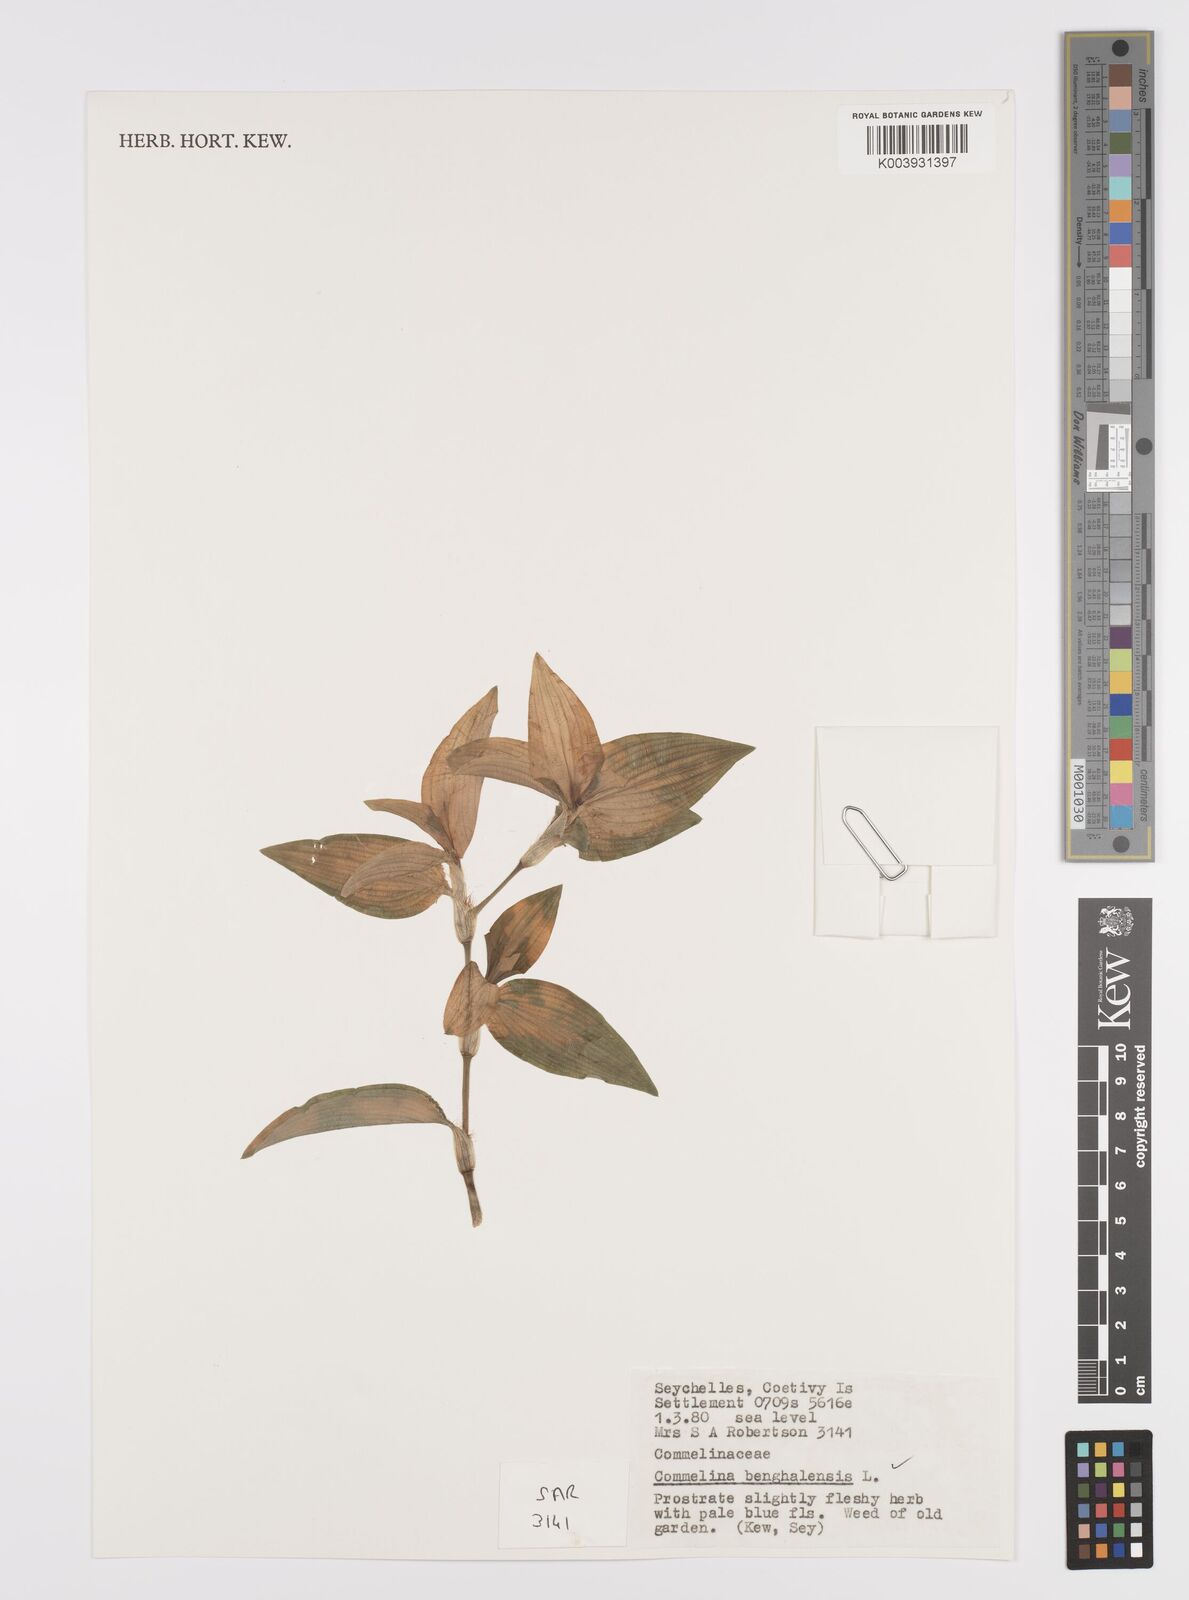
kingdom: Plantae
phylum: Tracheophyta
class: Liliopsida
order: Commelinales
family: Commelinaceae
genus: Commelina
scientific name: Commelina benghalensis
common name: Jio
